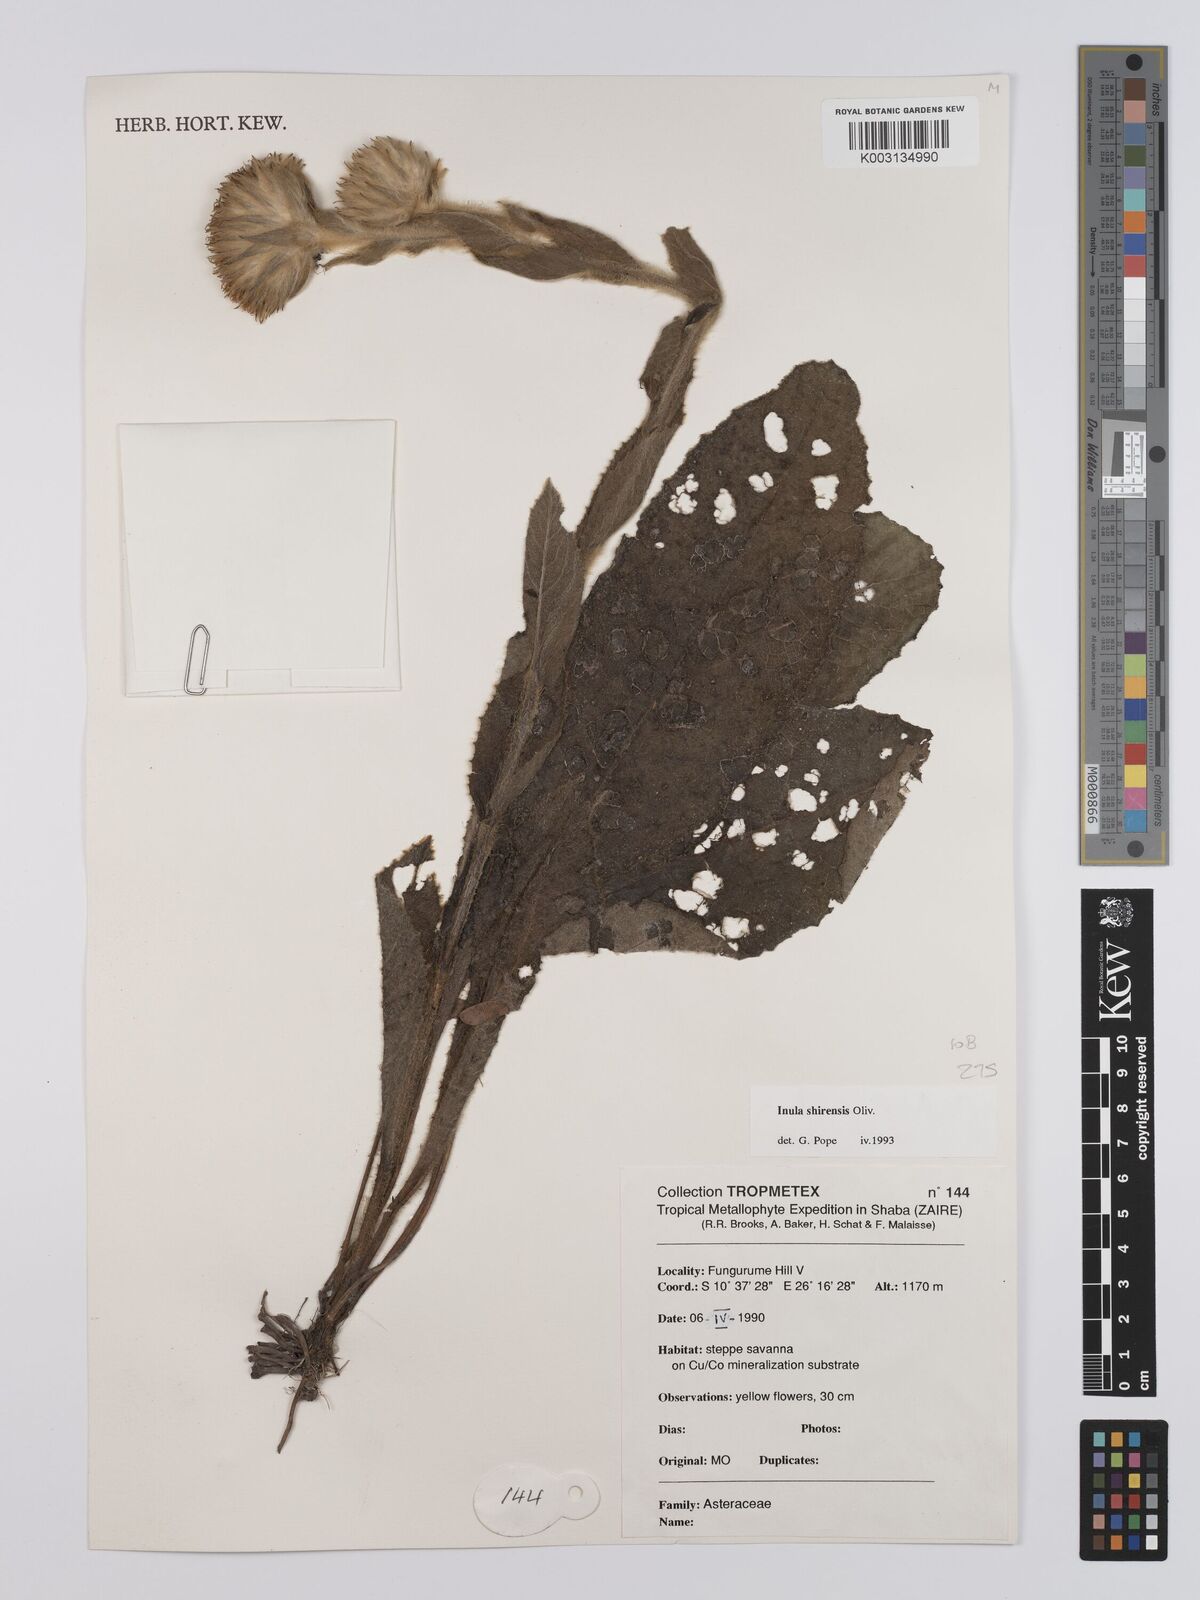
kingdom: Plantae
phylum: Tracheophyta
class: Magnoliopsida
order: Asterales
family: Asteraceae
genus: Monactinocephalus
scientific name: Monactinocephalus shirensis
